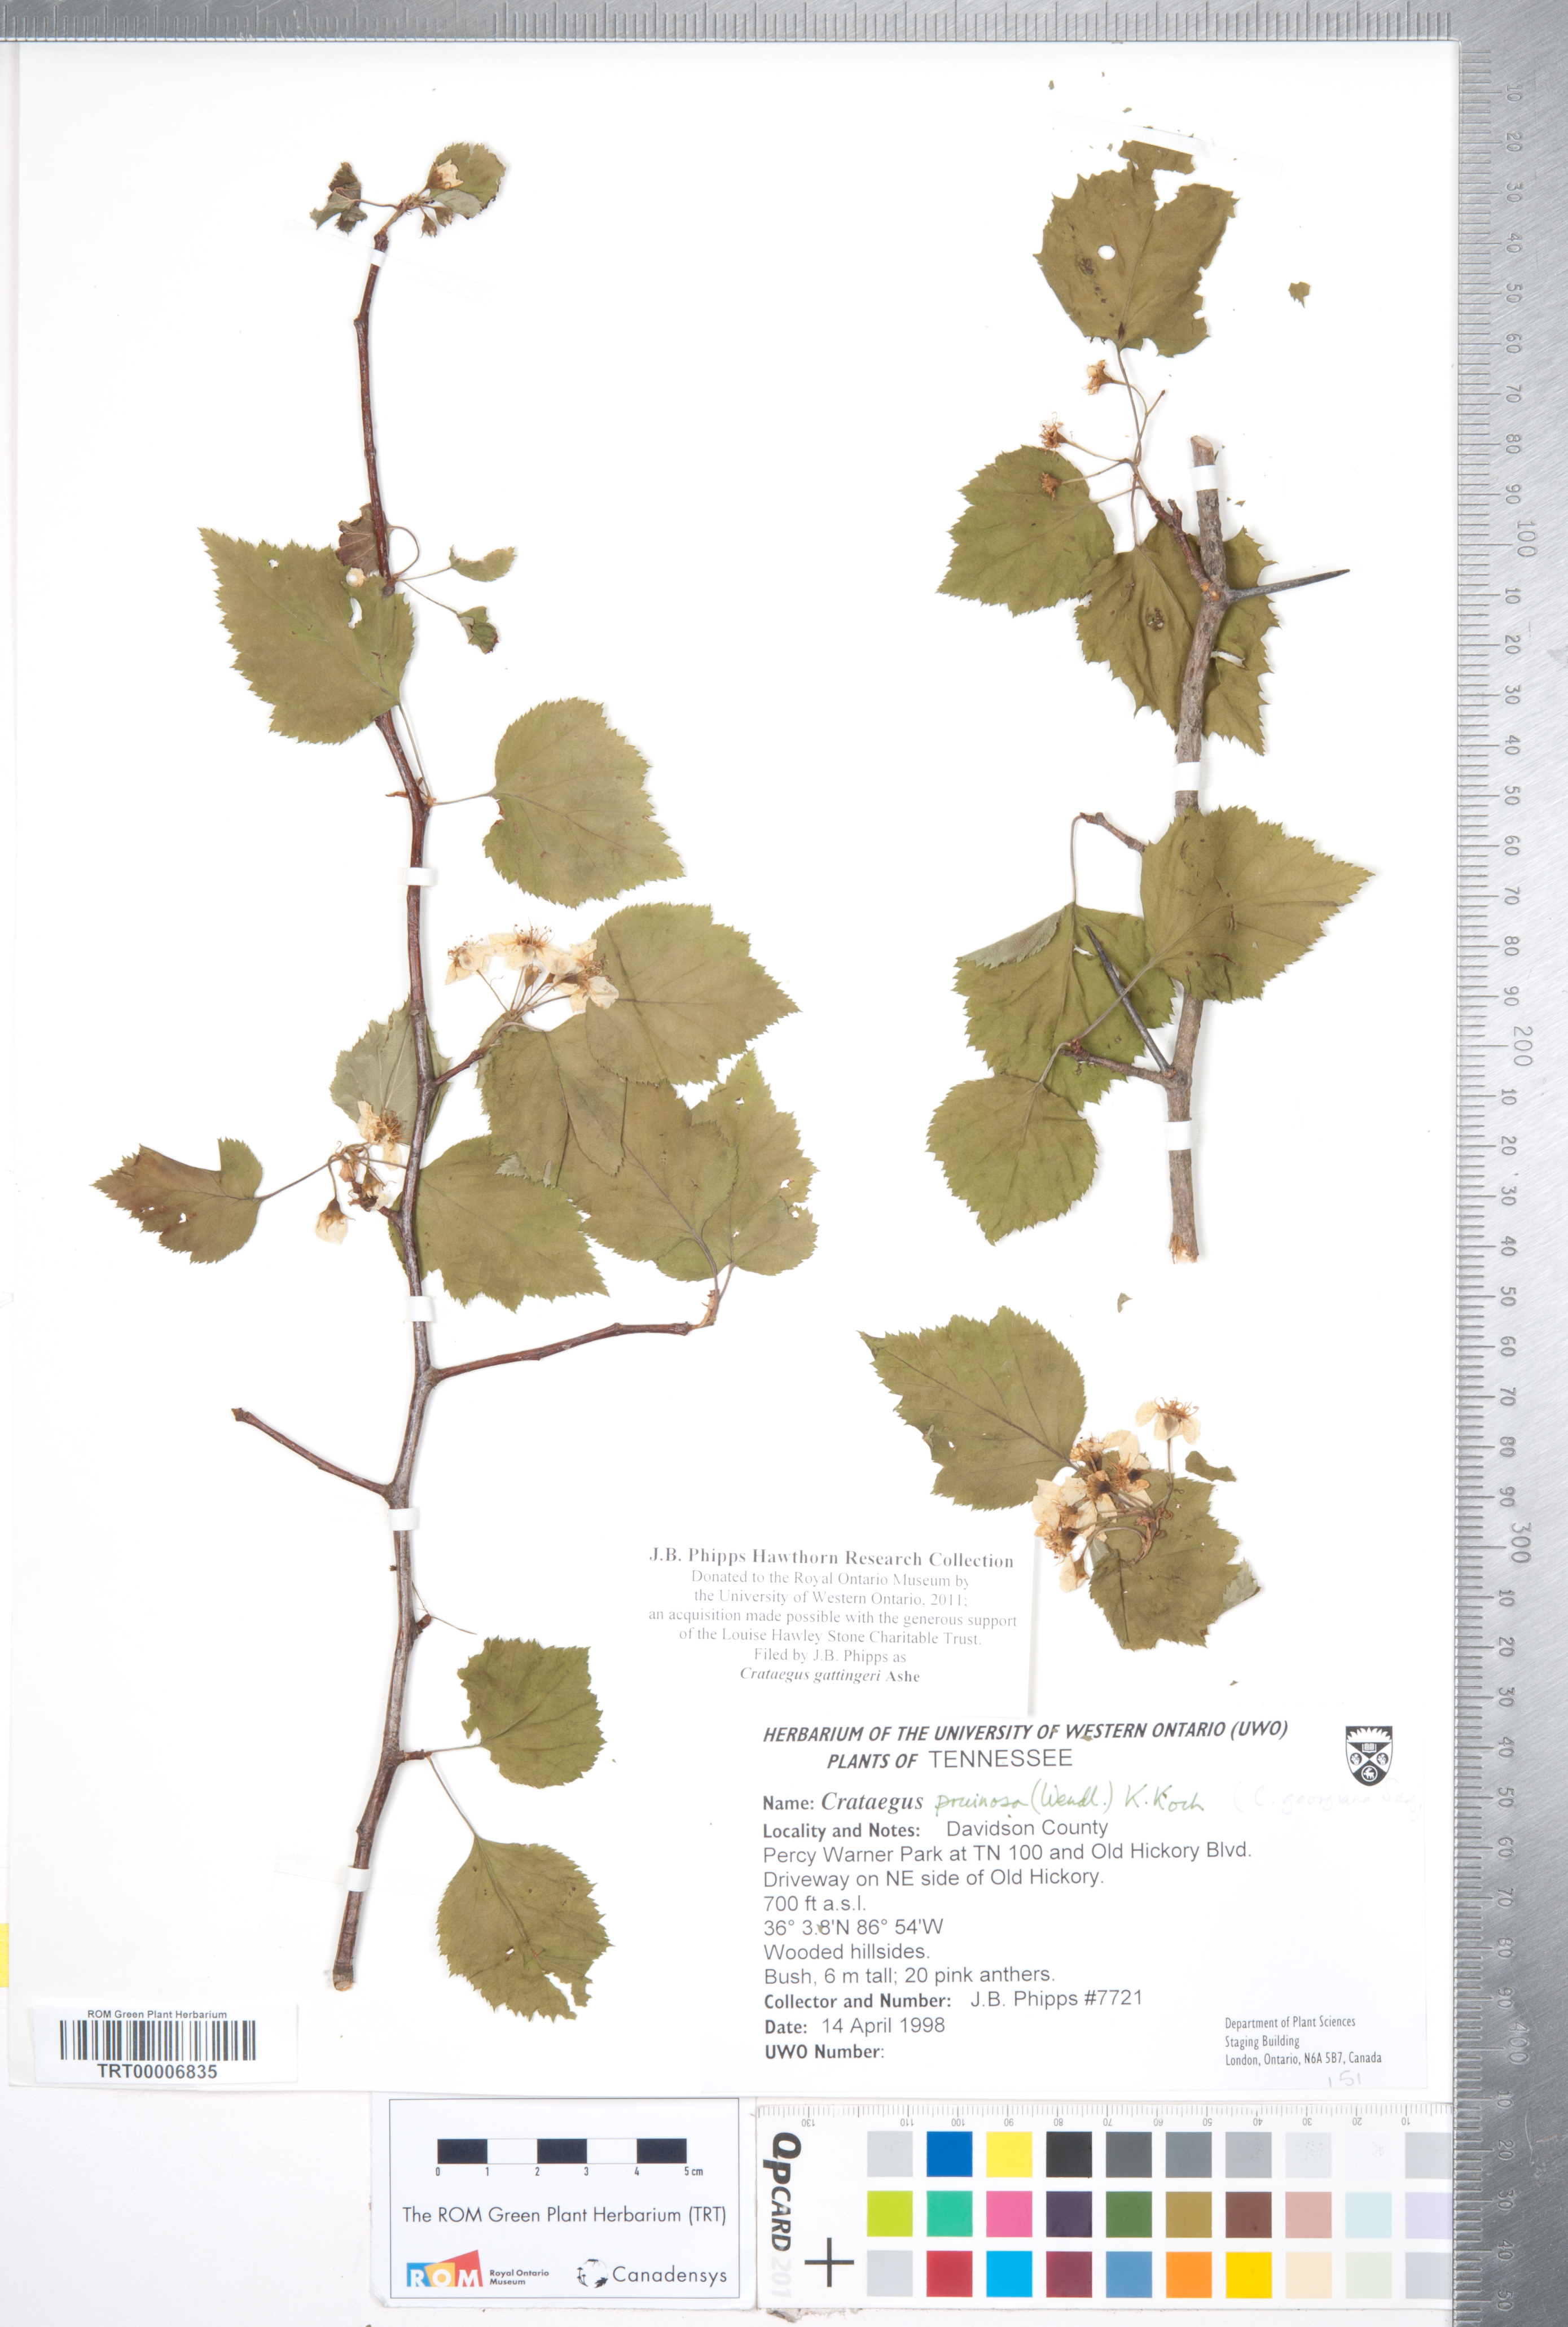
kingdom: Plantae
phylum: Tracheophyta
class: Magnoliopsida
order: Rosales
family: Rosaceae
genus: Crataegus
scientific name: Crataegus gattingeri
